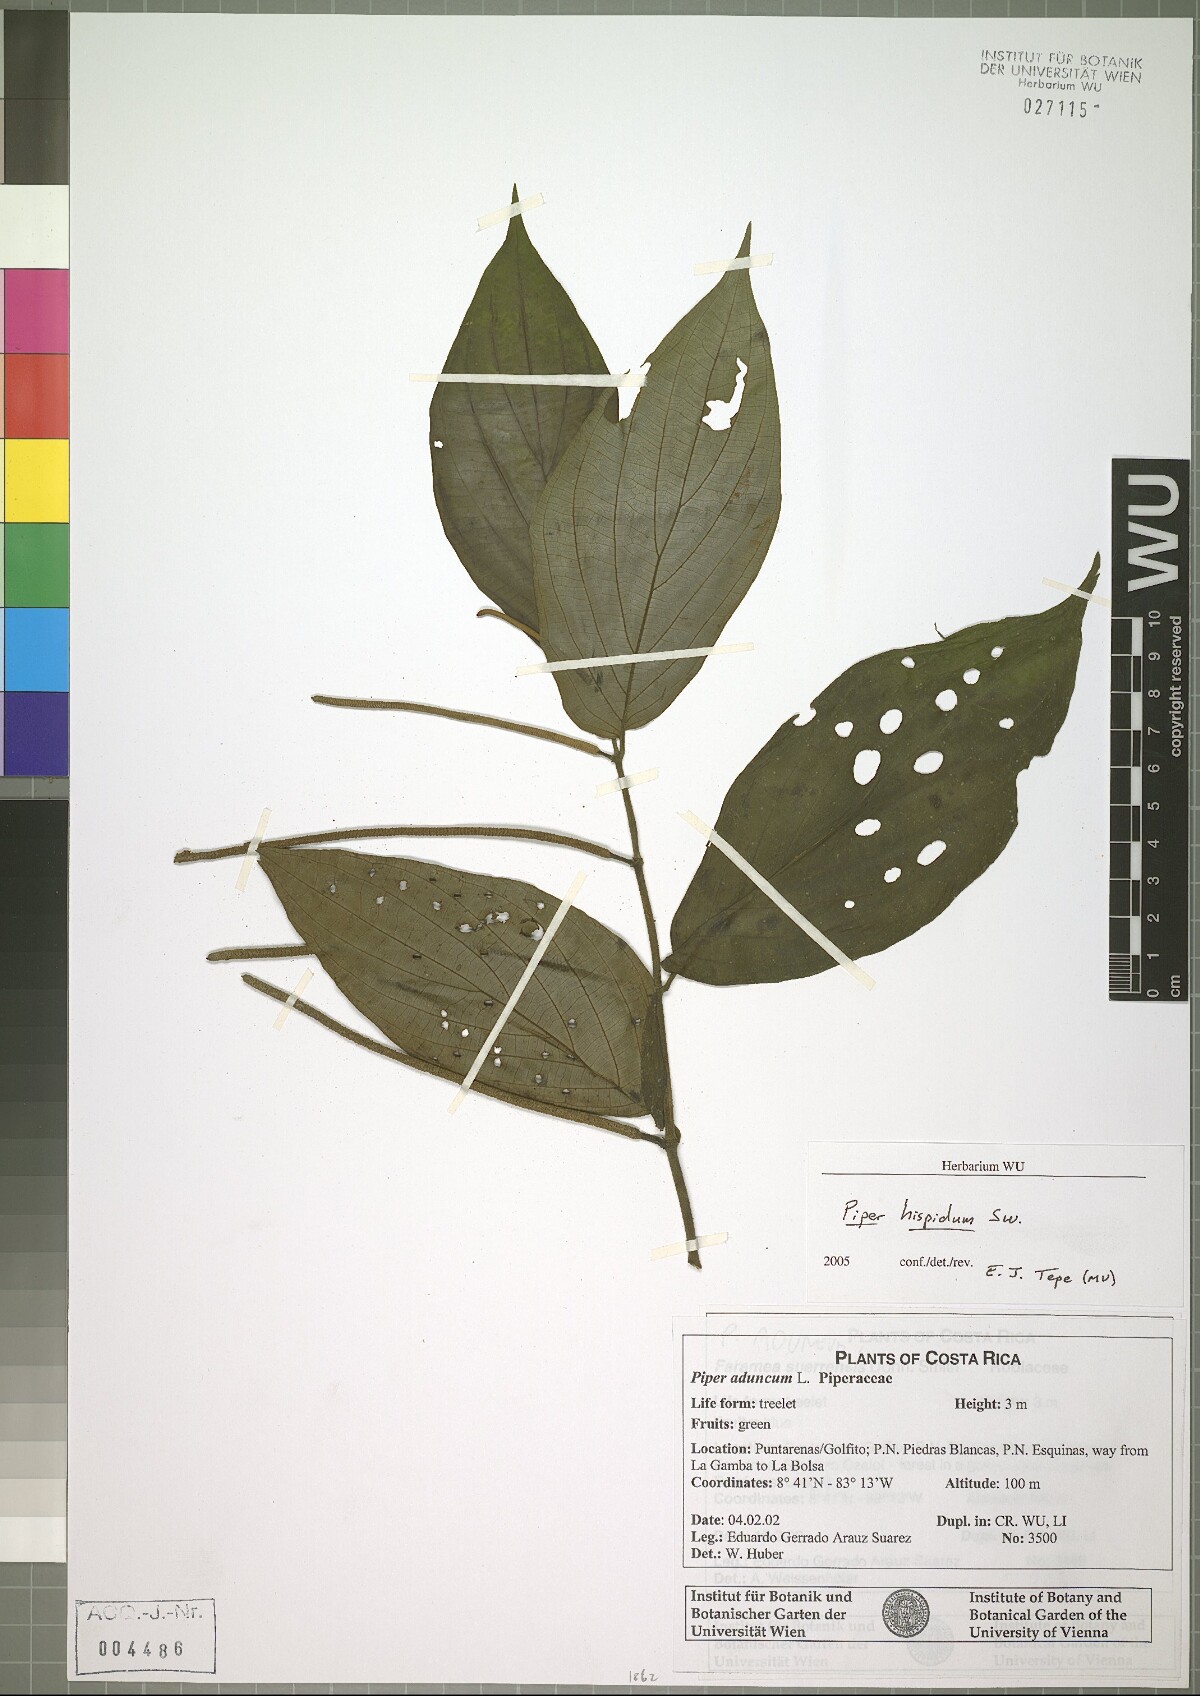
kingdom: Plantae
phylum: Tracheophyta
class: Magnoliopsida
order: Piperales
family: Piperaceae
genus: Piper
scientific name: Piper hispidum
